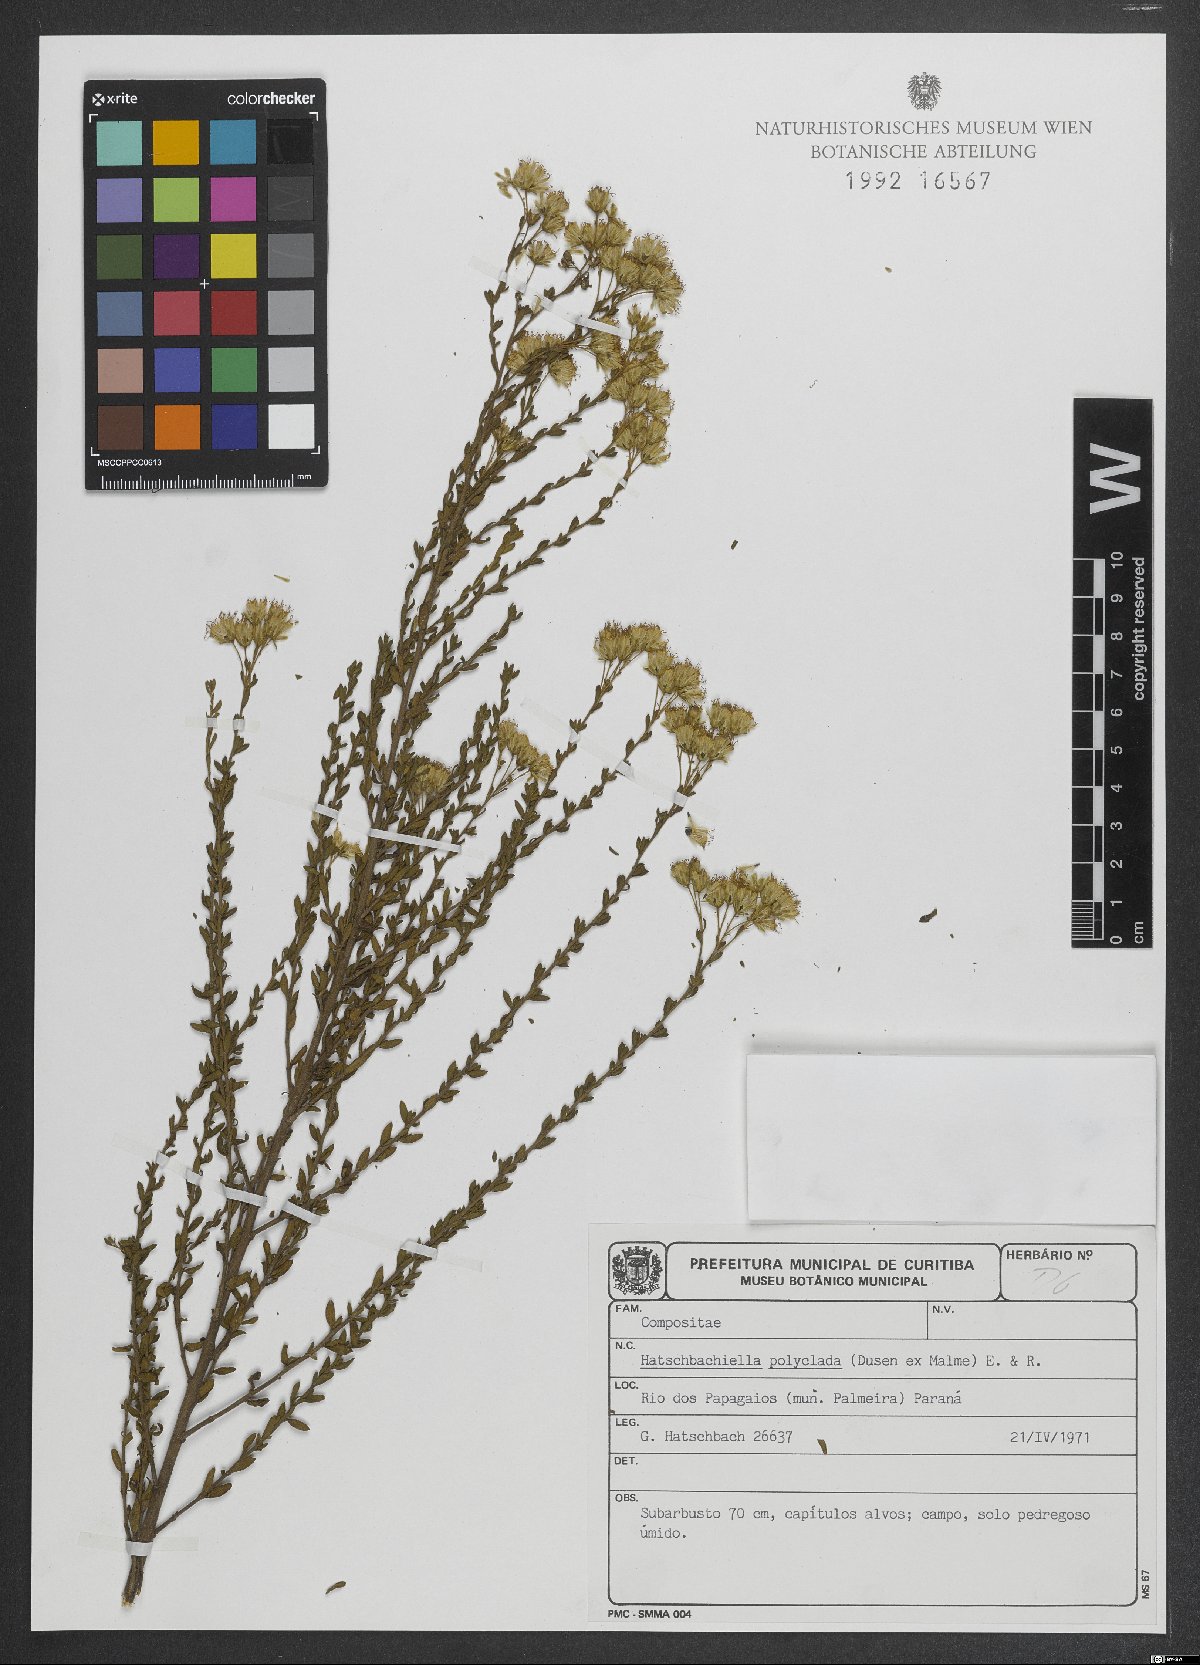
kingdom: Plantae
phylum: Tracheophyta
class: Magnoliopsida
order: Asterales
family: Asteraceae
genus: Hatschbachiella
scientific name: Hatschbachiella polyclada
